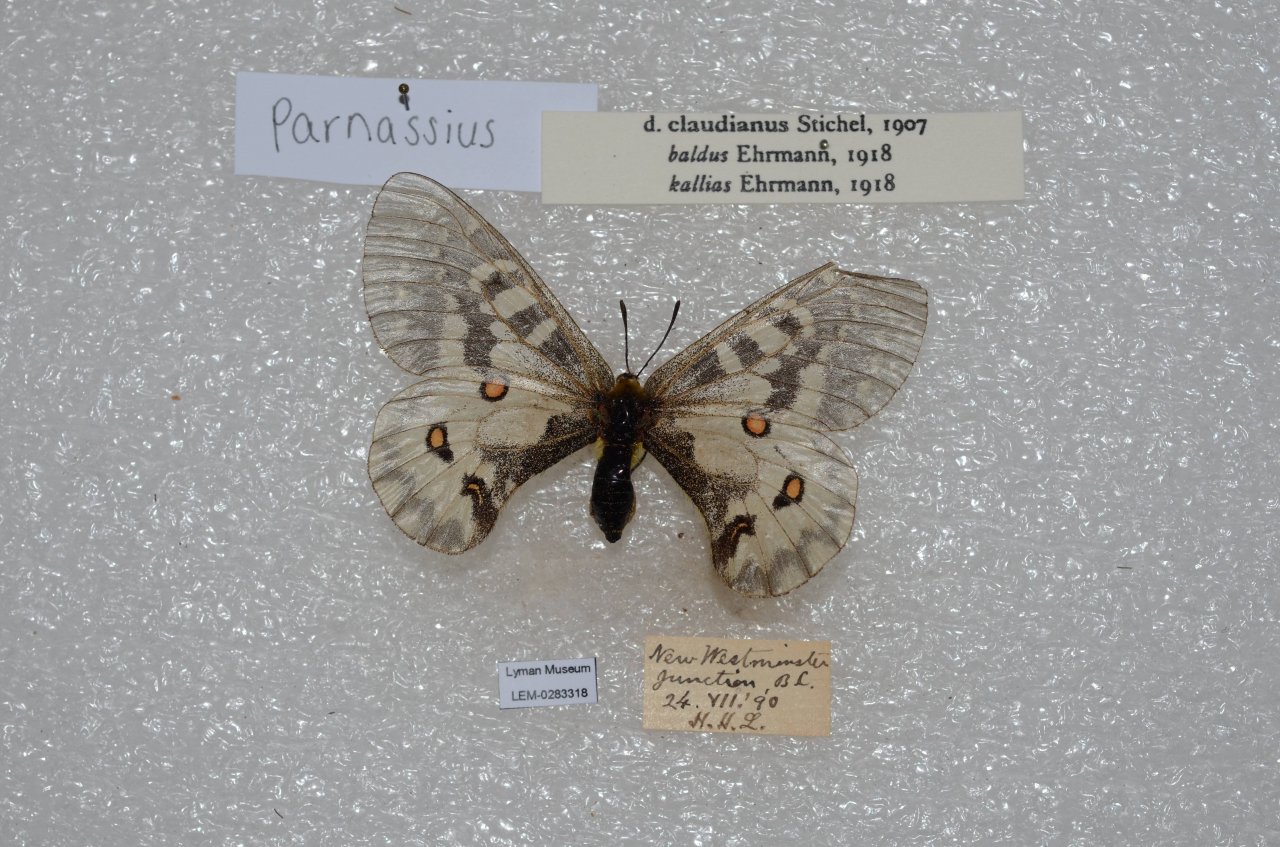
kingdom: Animalia
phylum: Arthropoda
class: Insecta
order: Lepidoptera
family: Papilionidae
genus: Parnassius
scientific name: Parnassius clodius
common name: Clodius Parnassian
